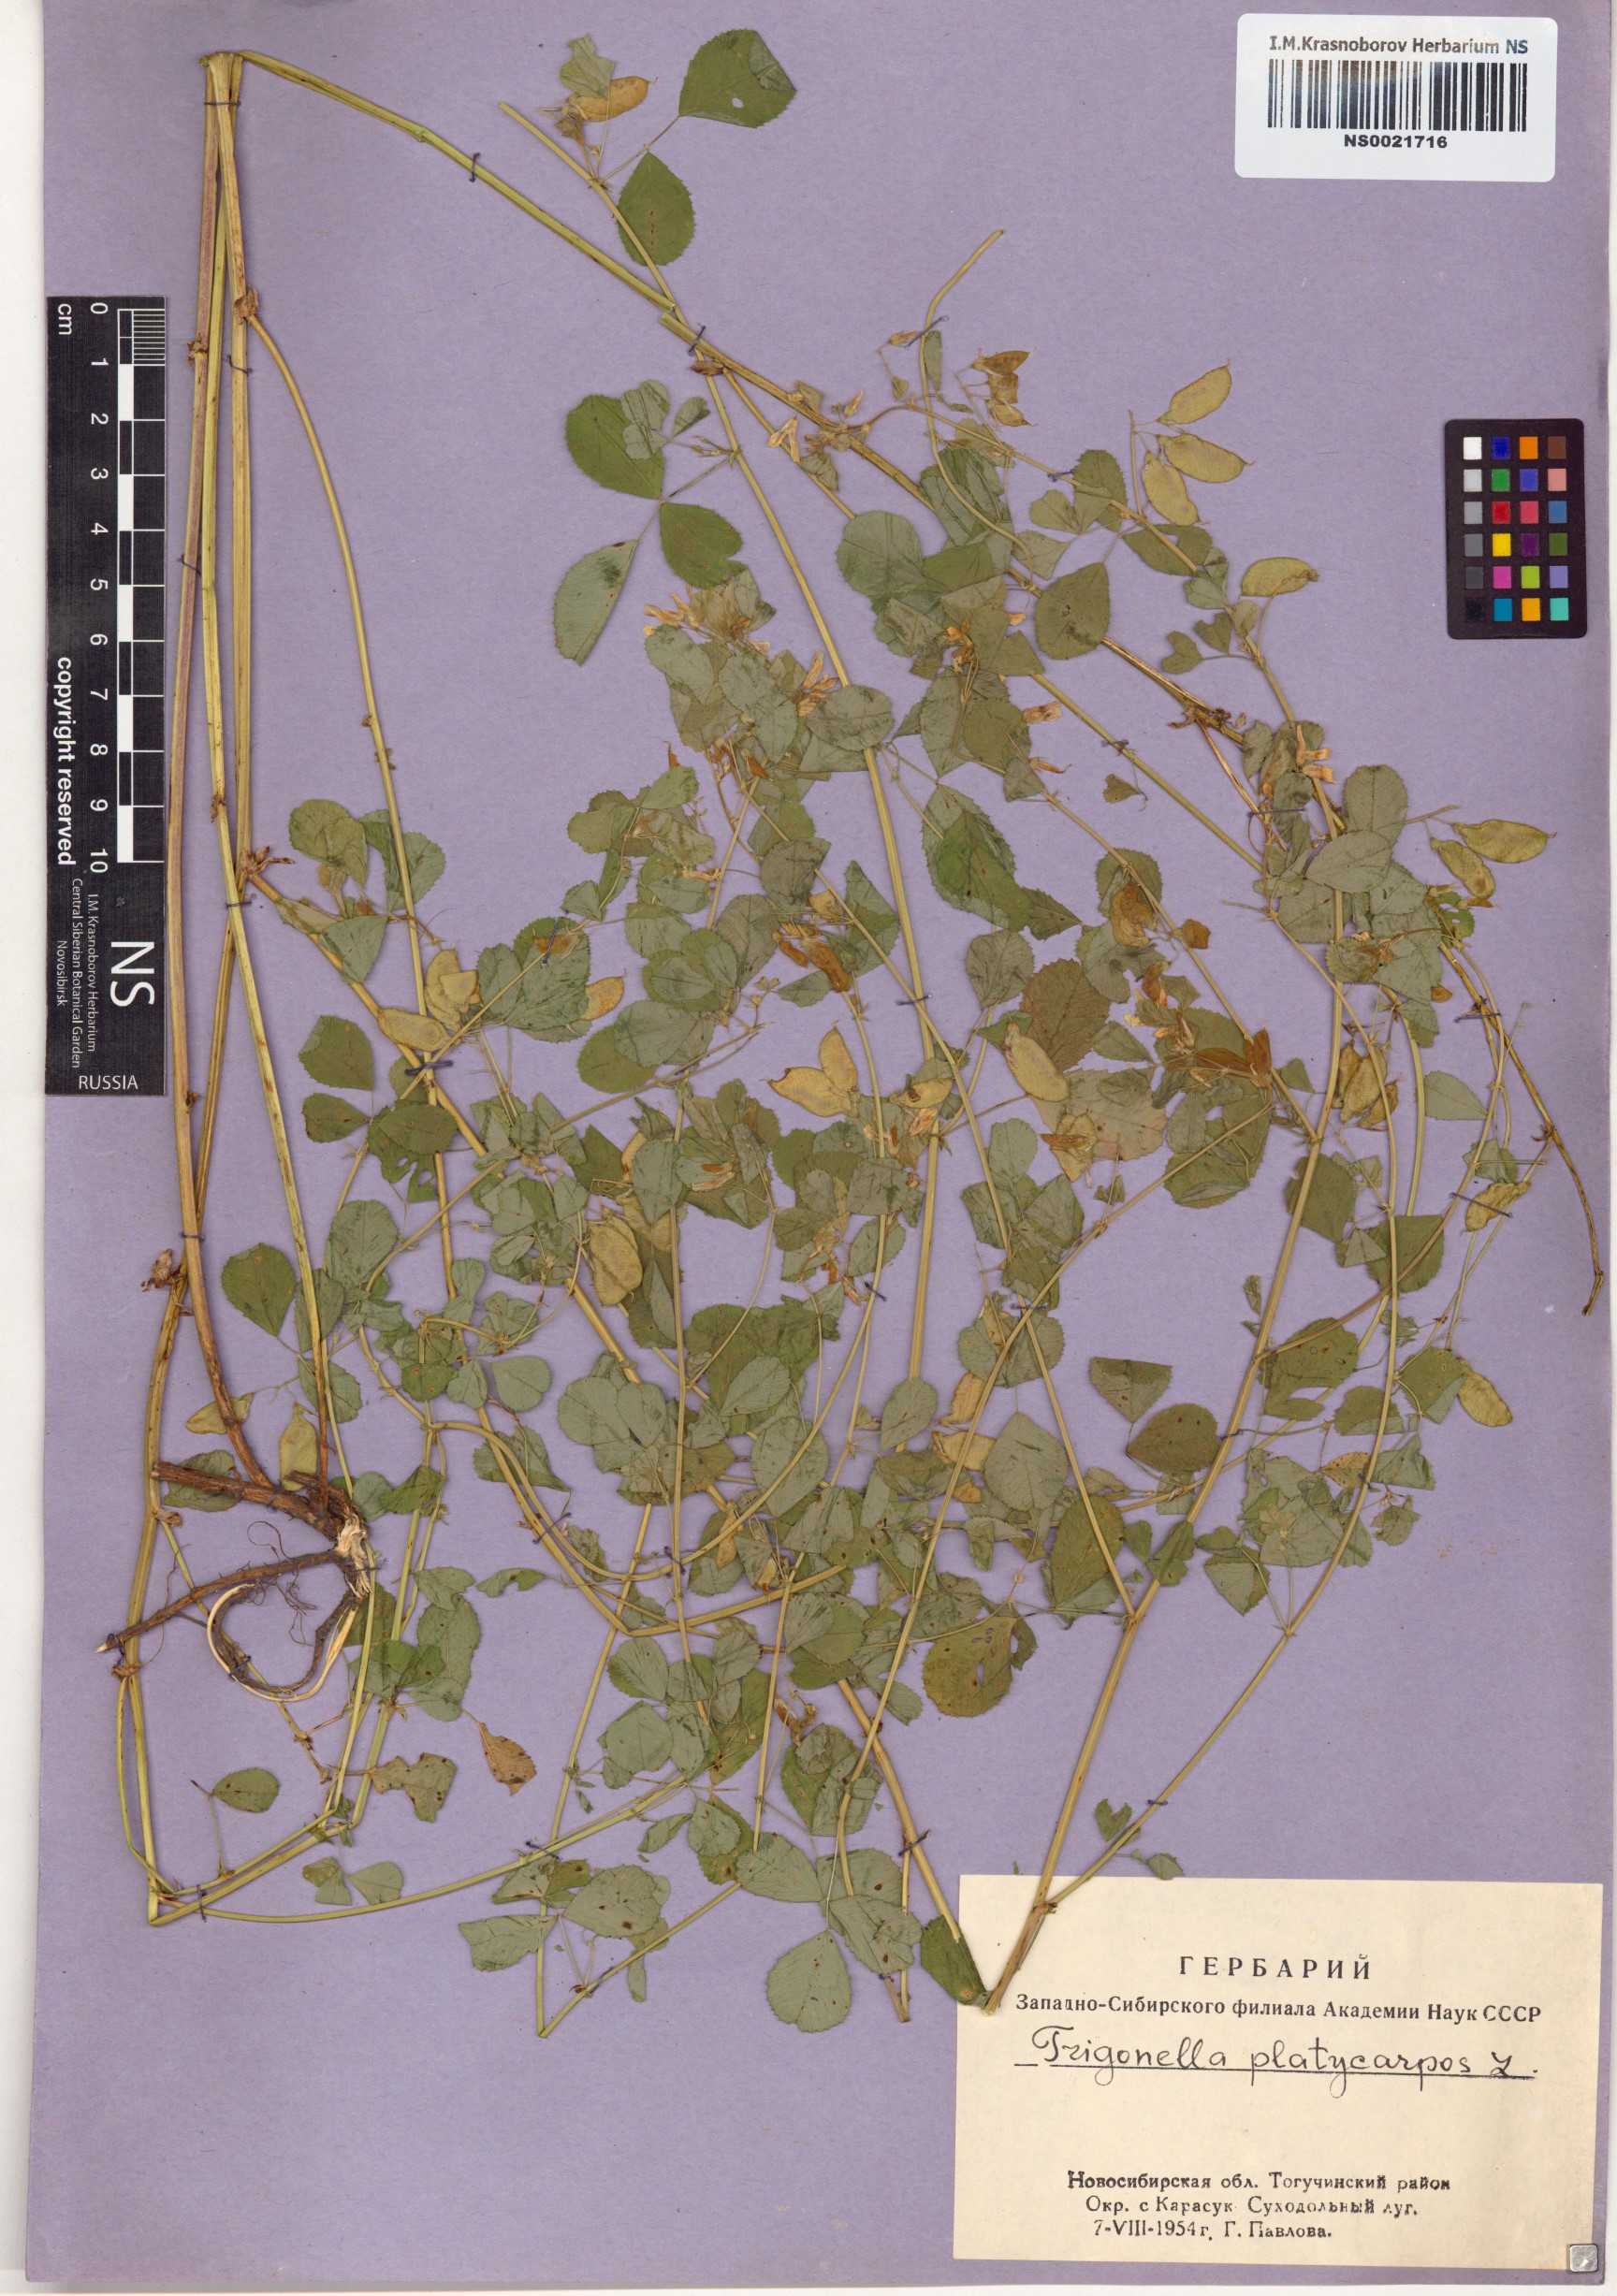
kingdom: Plantae
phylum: Tracheophyta
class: Magnoliopsida
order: Fabales
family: Fabaceae
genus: Medicago
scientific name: Medicago platycarpos
